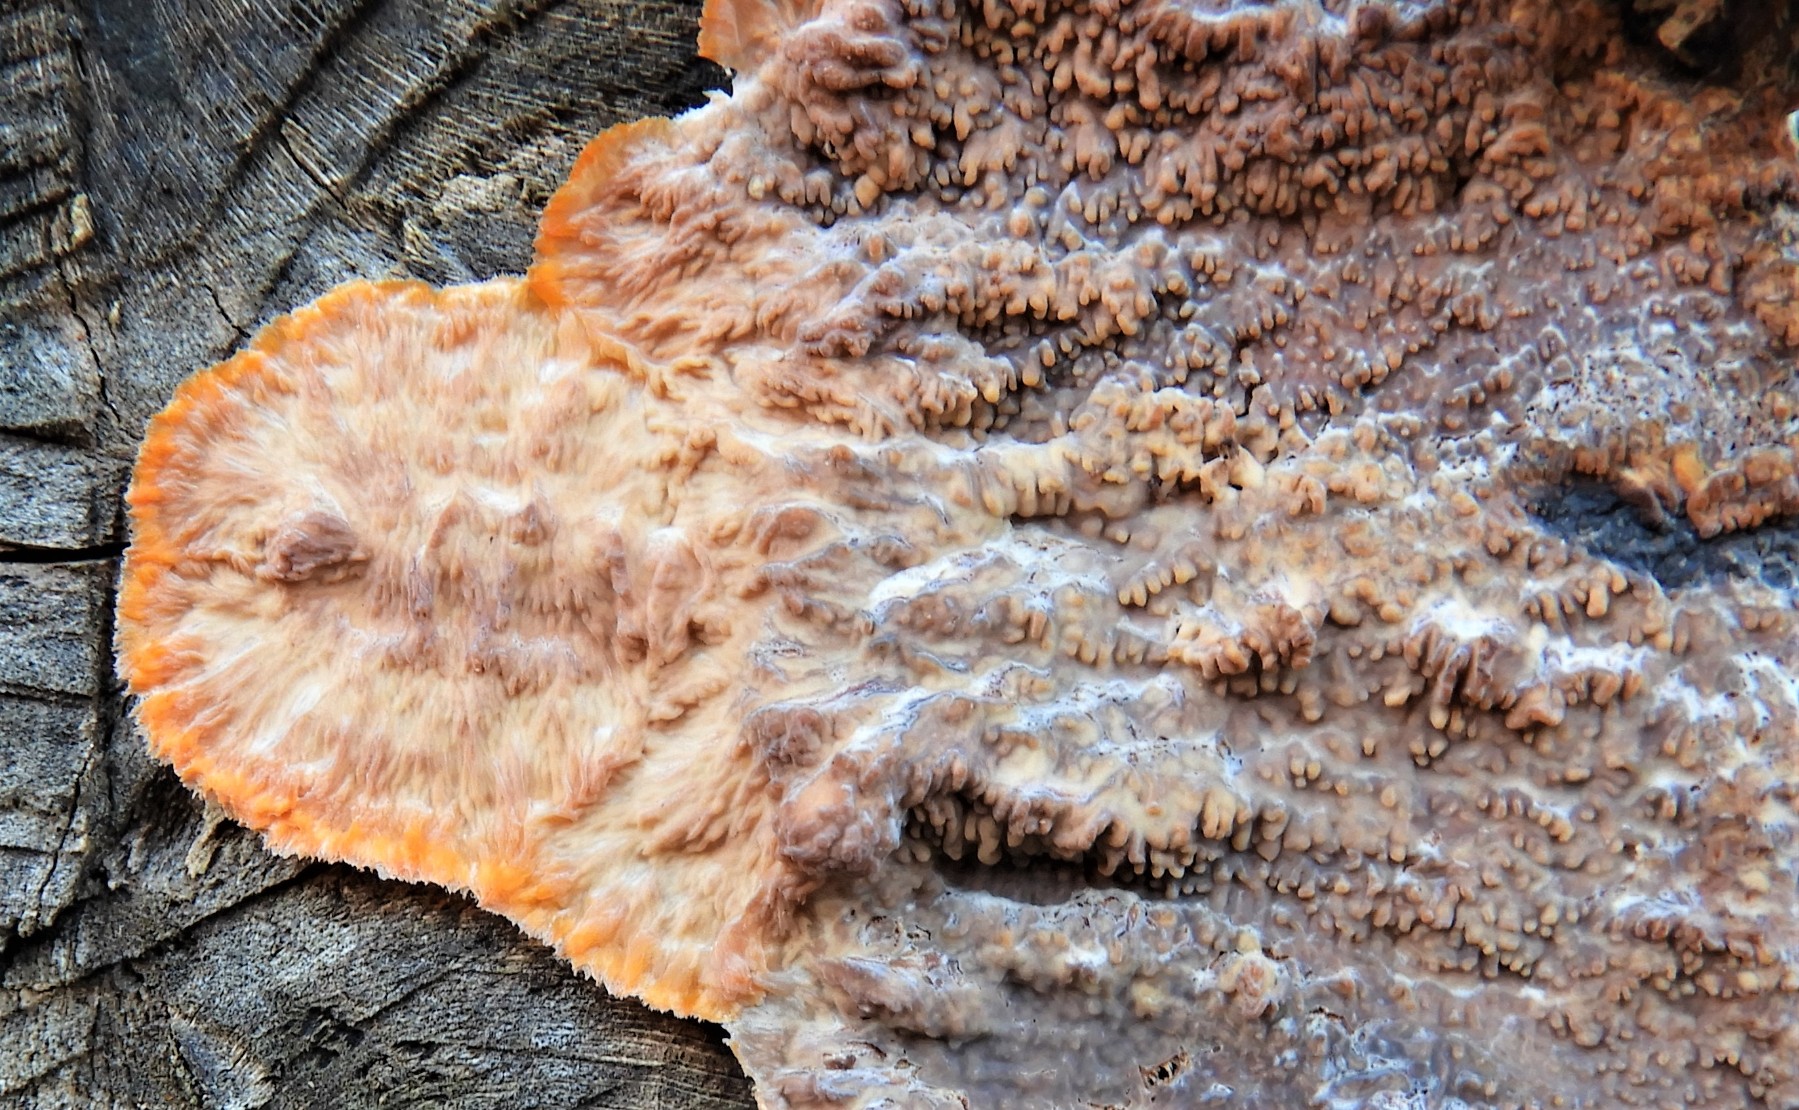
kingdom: Fungi
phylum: Basidiomycota
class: Agaricomycetes
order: Polyporales
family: Meruliaceae
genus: Phlebia
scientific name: Phlebia radiata
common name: stråle-åresvamp
